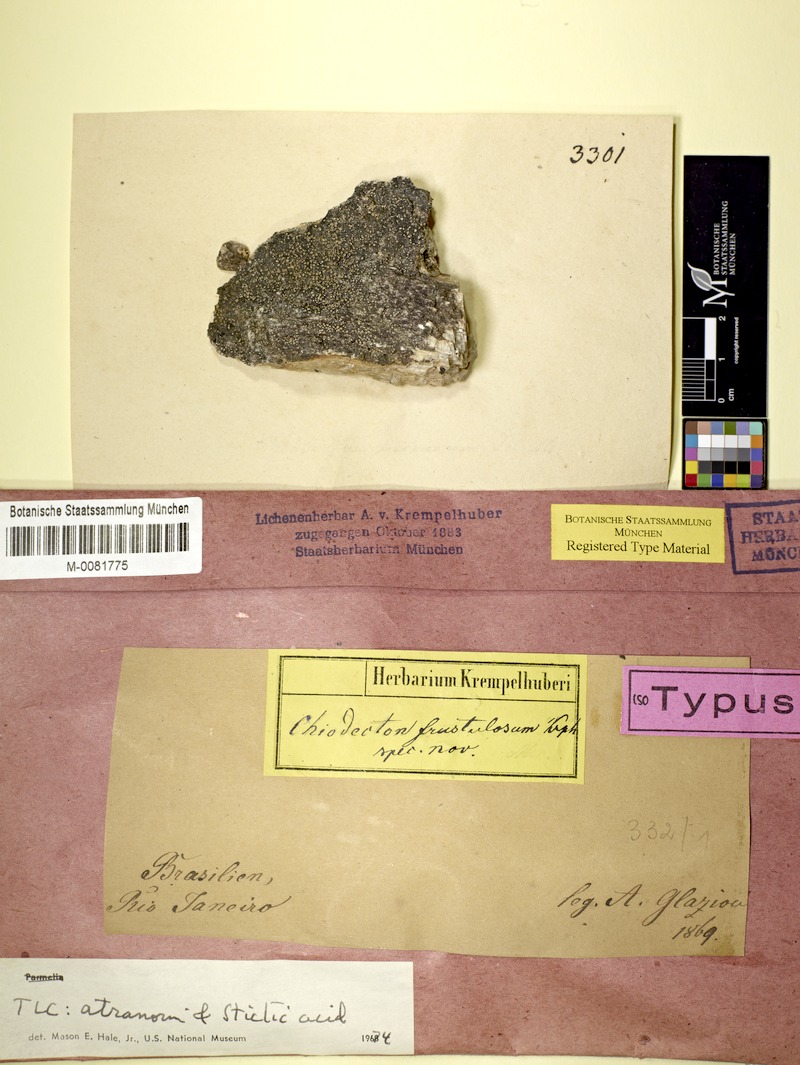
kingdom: Fungi
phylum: Ascomycota
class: Arthoniomycetes
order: Arthoniales
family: Roccellaceae
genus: Enterographa
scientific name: Enterographa
